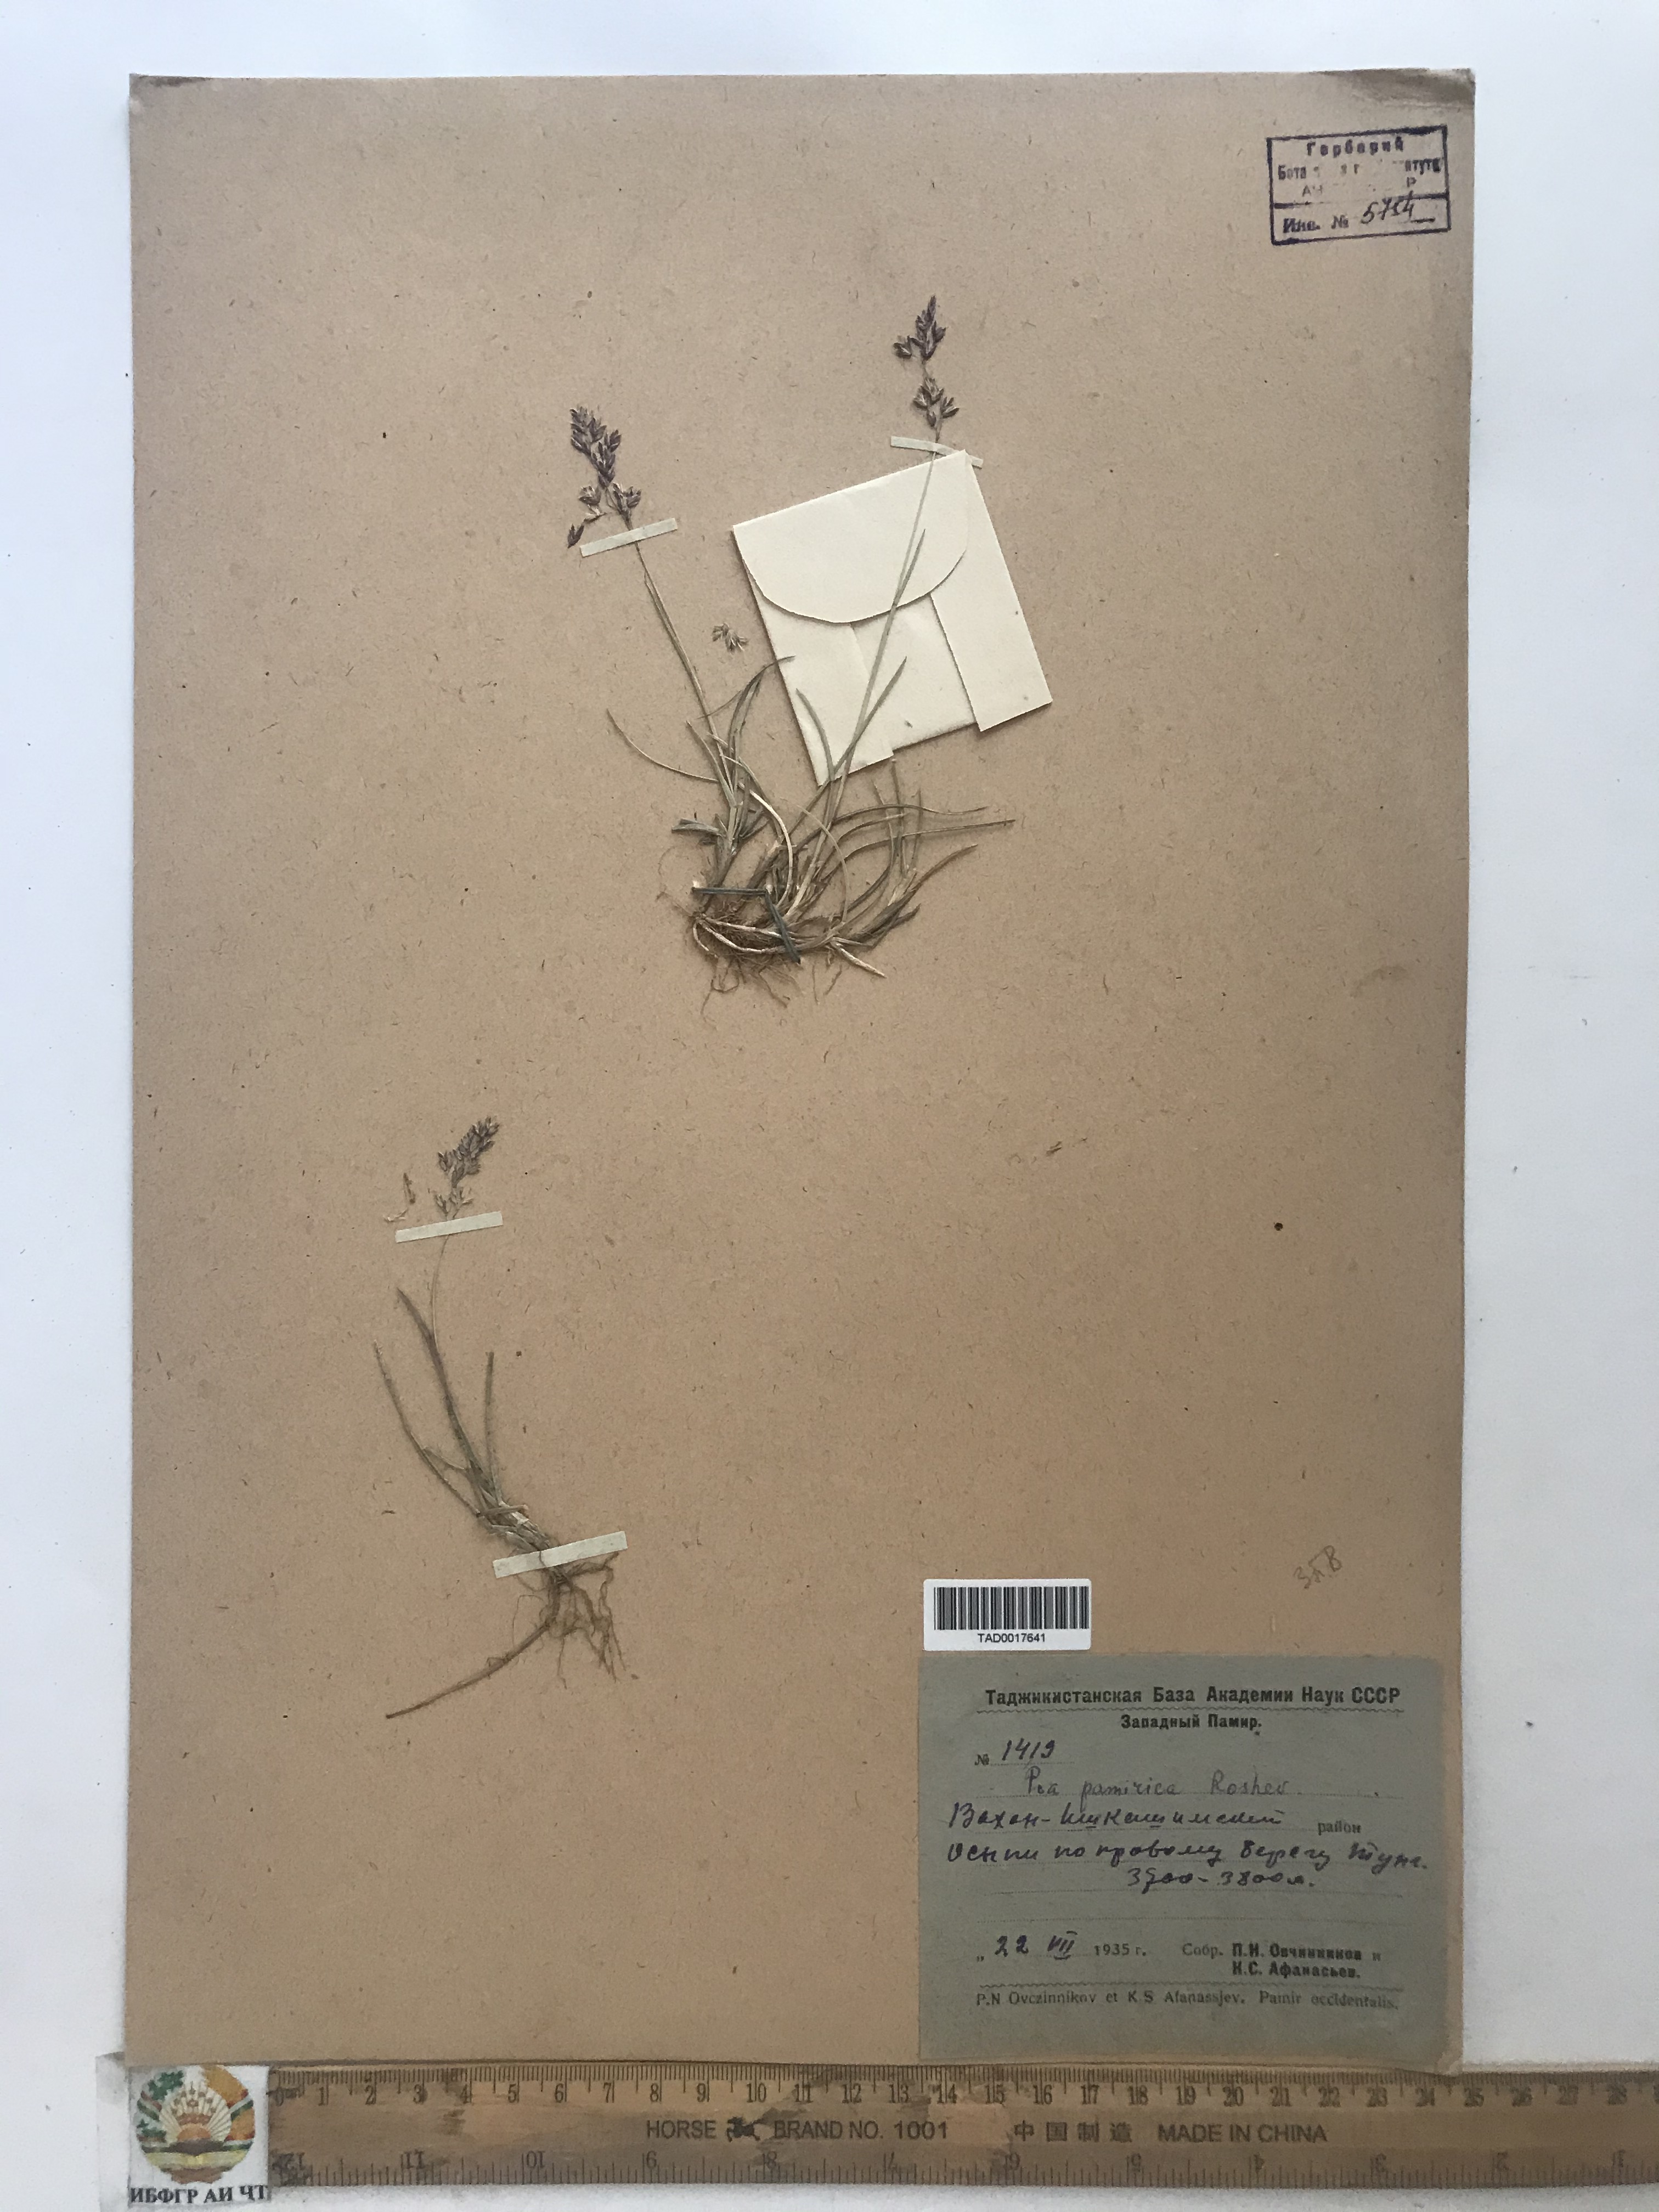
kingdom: Plantae
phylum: Tracheophyta
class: Liliopsida
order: Poales
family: Poaceae
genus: Poa
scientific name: Poa tianschanica
